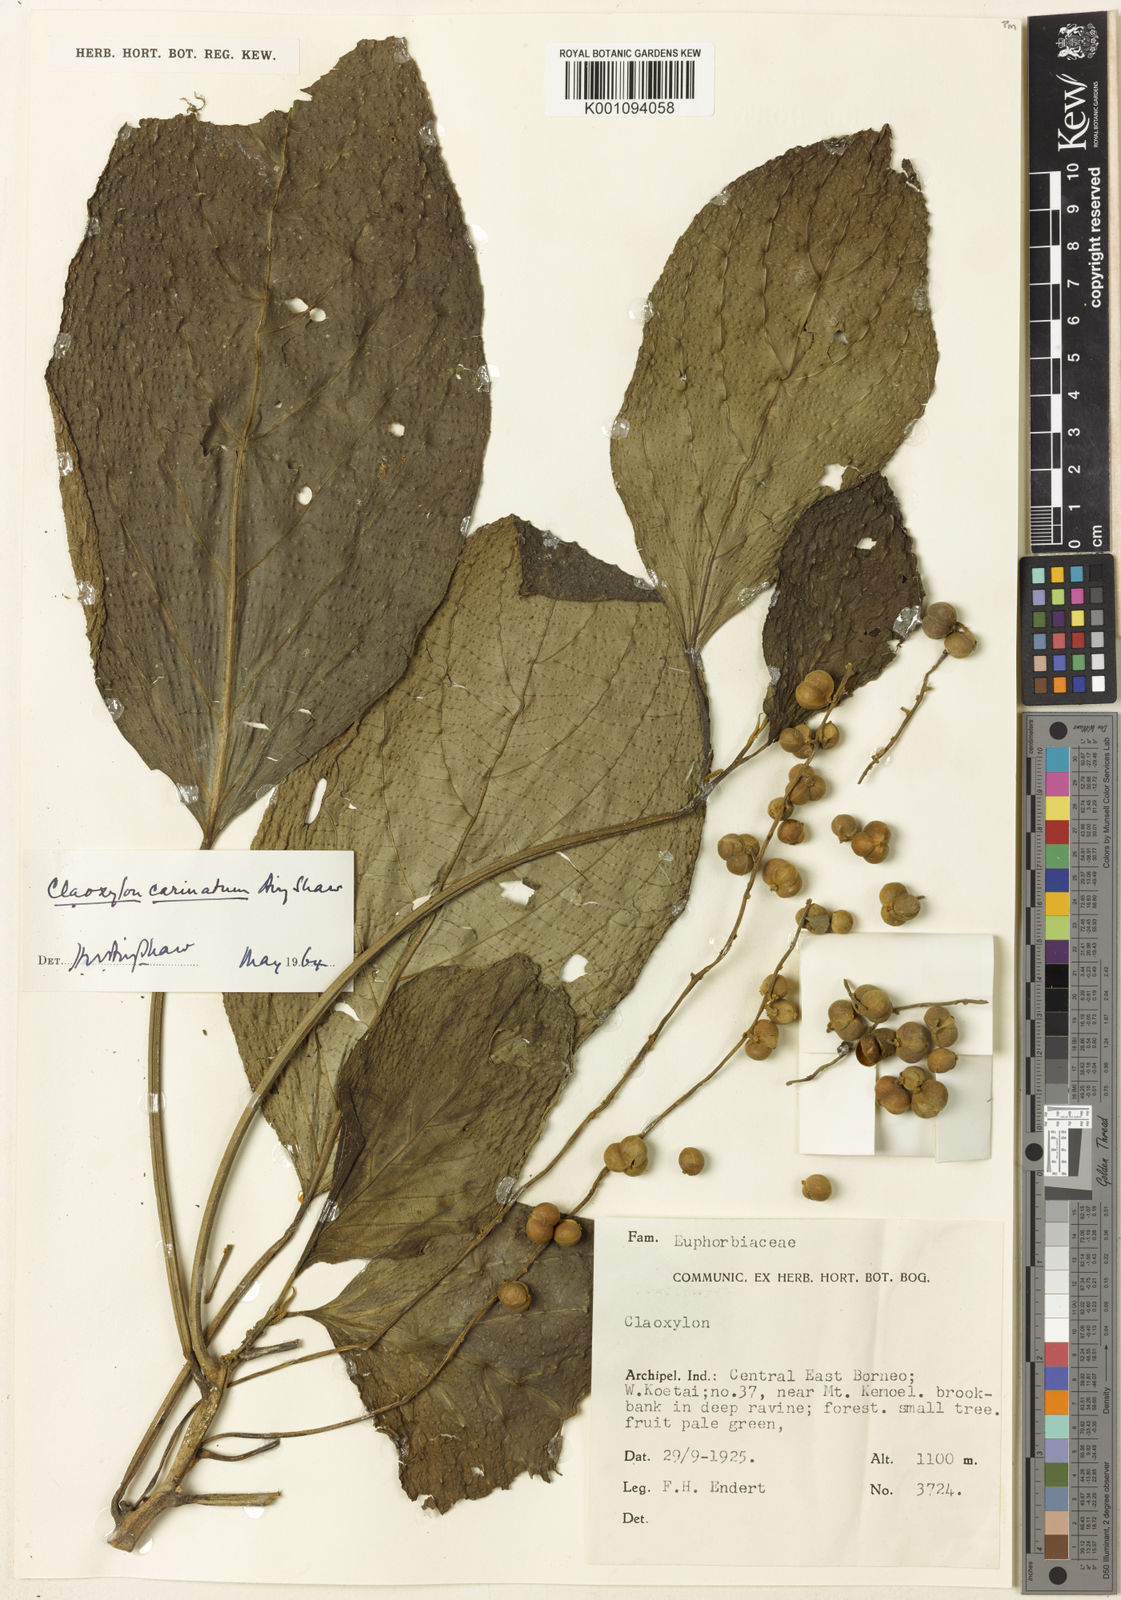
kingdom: Plantae
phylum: Tracheophyta
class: Magnoliopsida
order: Malpighiales
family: Euphorbiaceae
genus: Claoxylon
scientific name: Claoxylon carinatum
